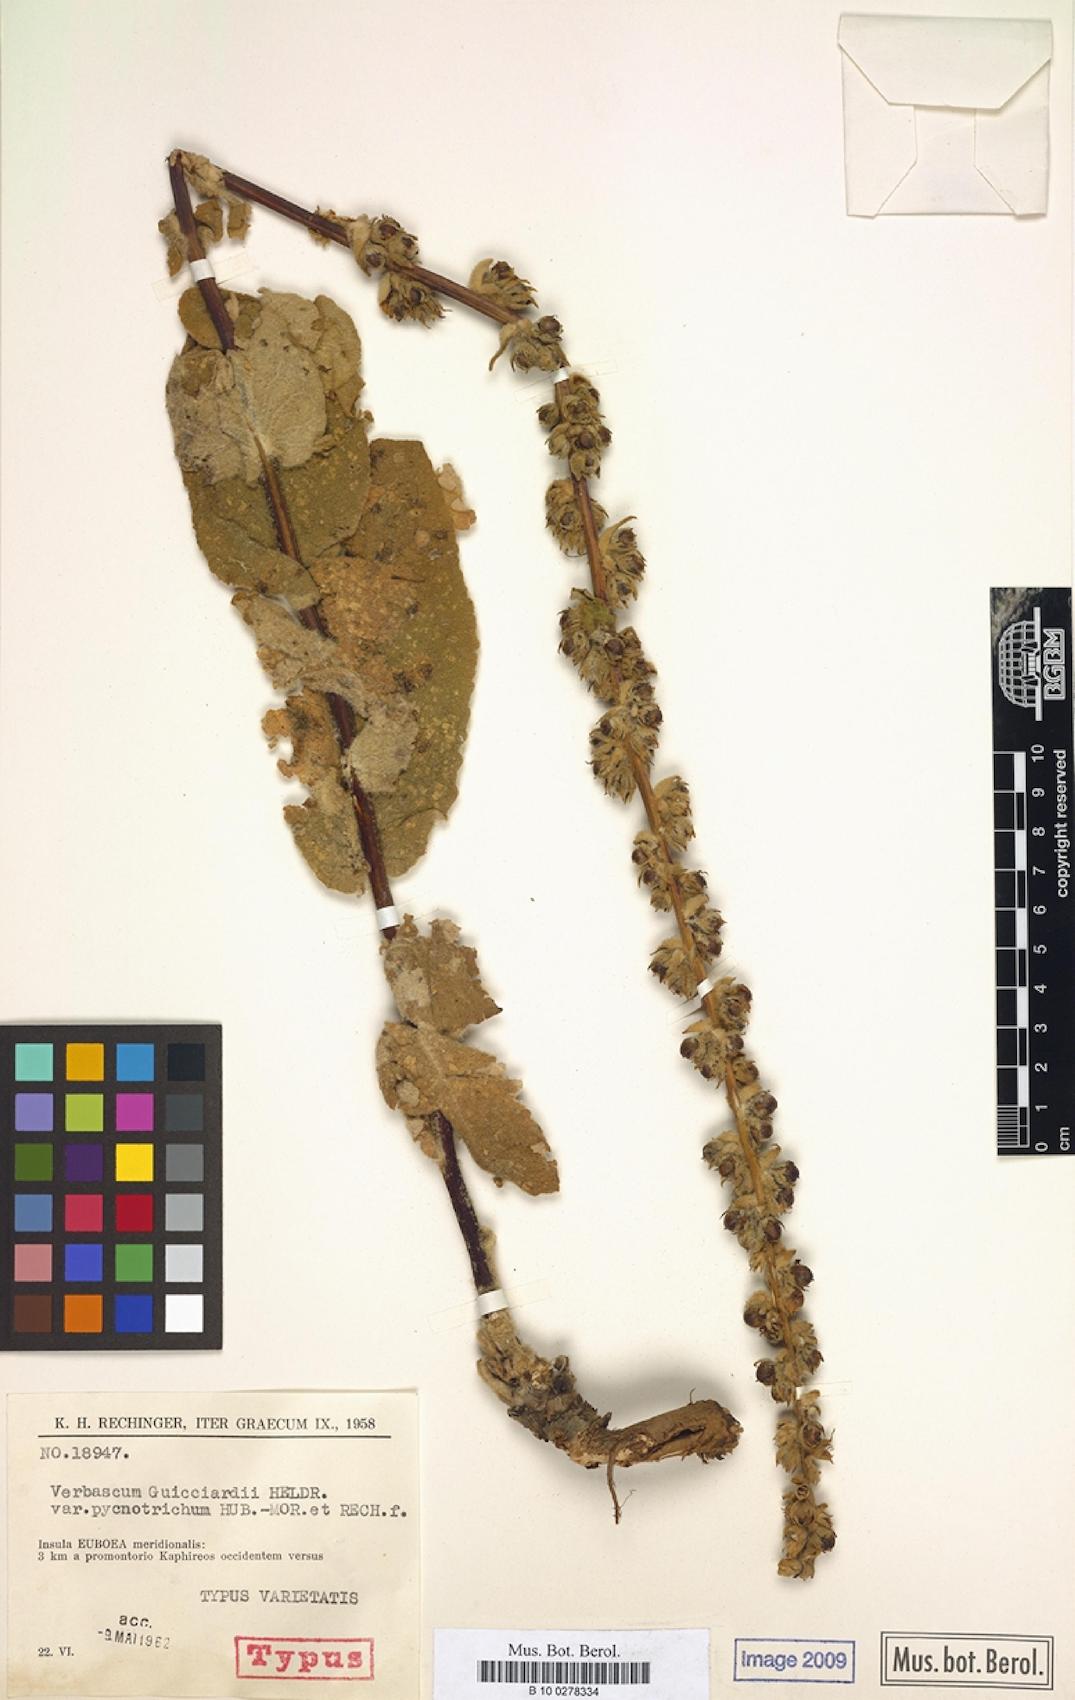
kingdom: Plantae
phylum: Tracheophyta
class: Magnoliopsida
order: Lamiales
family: Scrophulariaceae
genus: Verbascum
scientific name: Verbascum guicciardii
